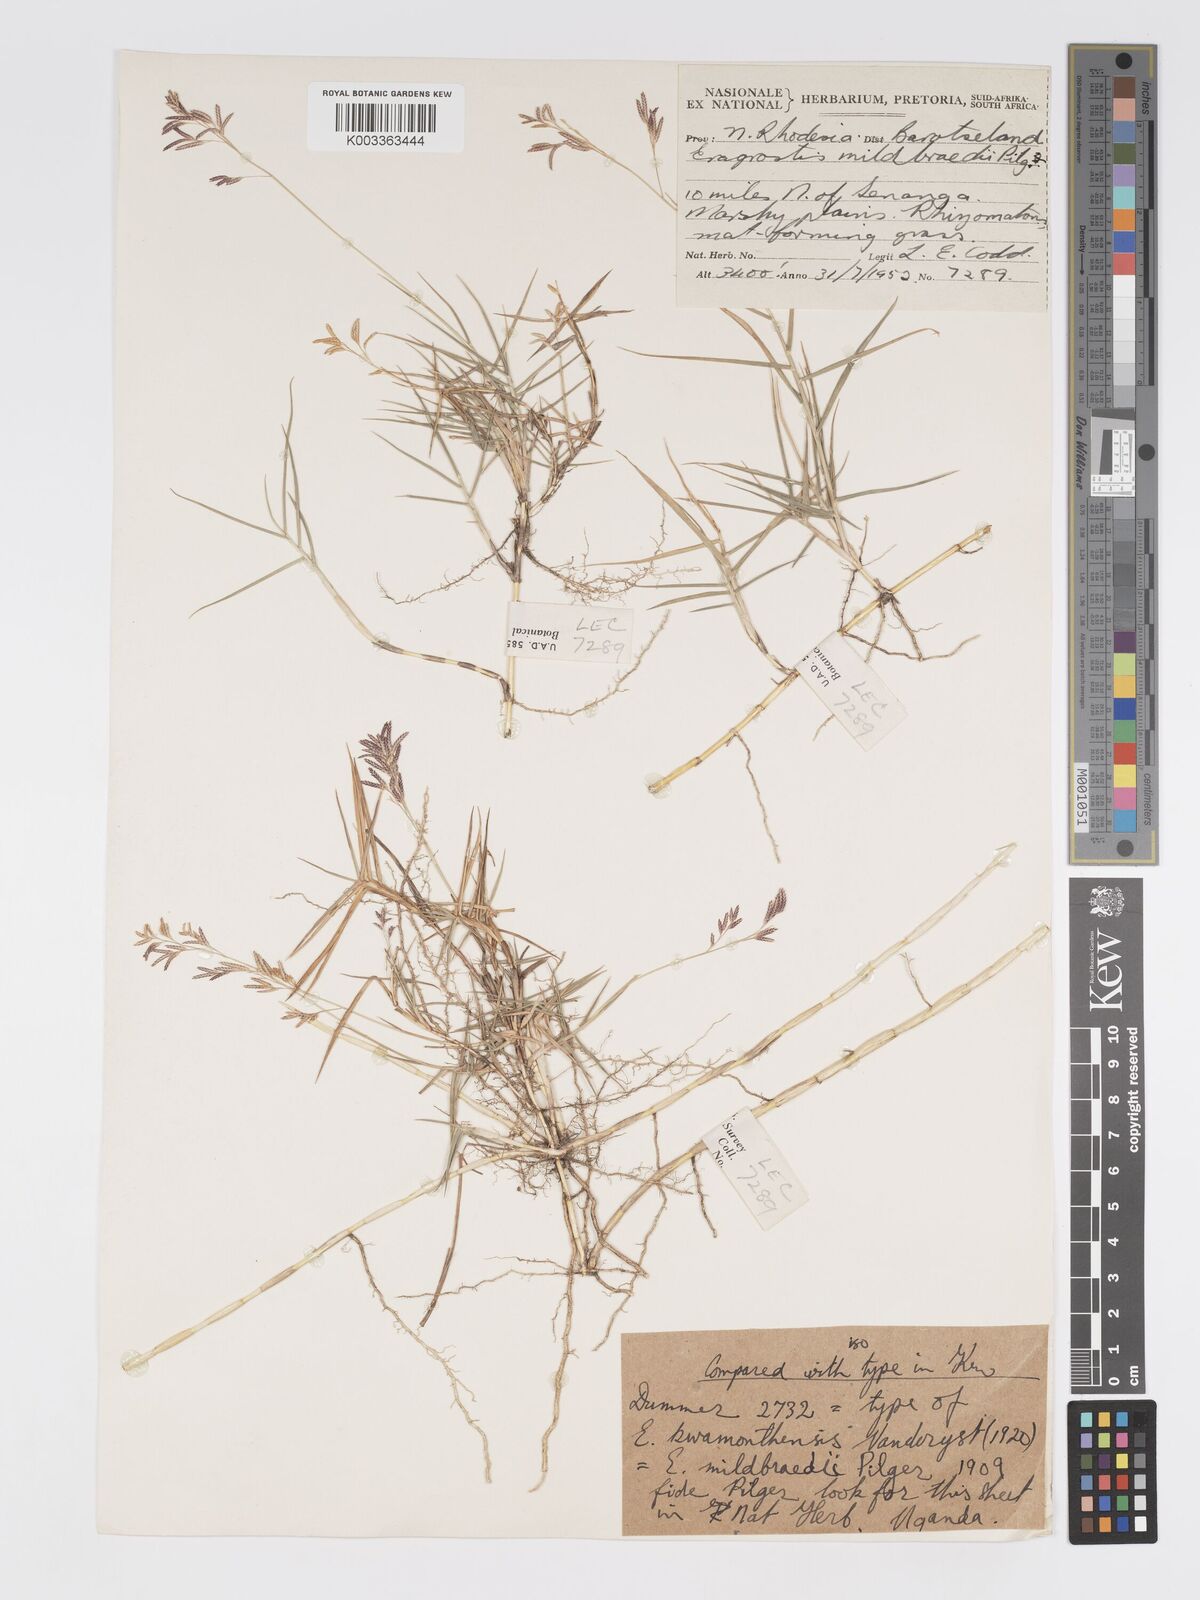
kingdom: Plantae
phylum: Tracheophyta
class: Liliopsida
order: Poales
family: Poaceae
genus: Eragrostis
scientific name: Eragrostis mildbraedii
